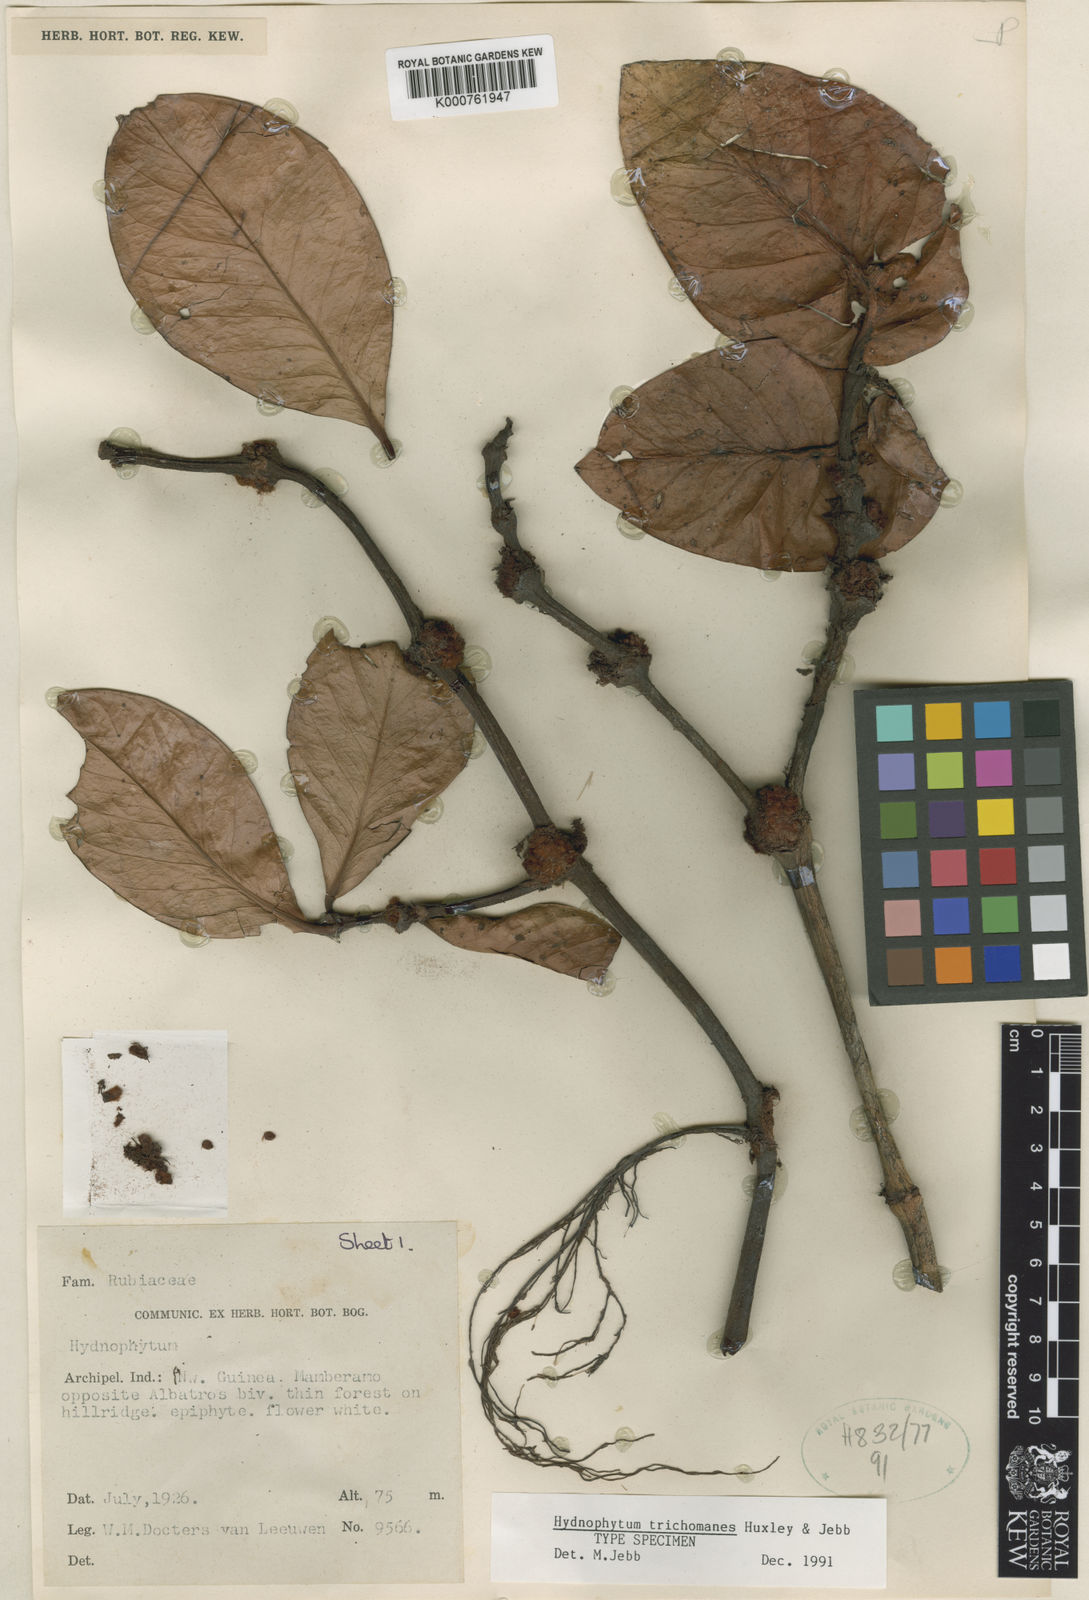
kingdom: Plantae
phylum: Tracheophyta
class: Magnoliopsida
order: Gentianales
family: Rubiaceae
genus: Hydnophytum
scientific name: Hydnophytum
